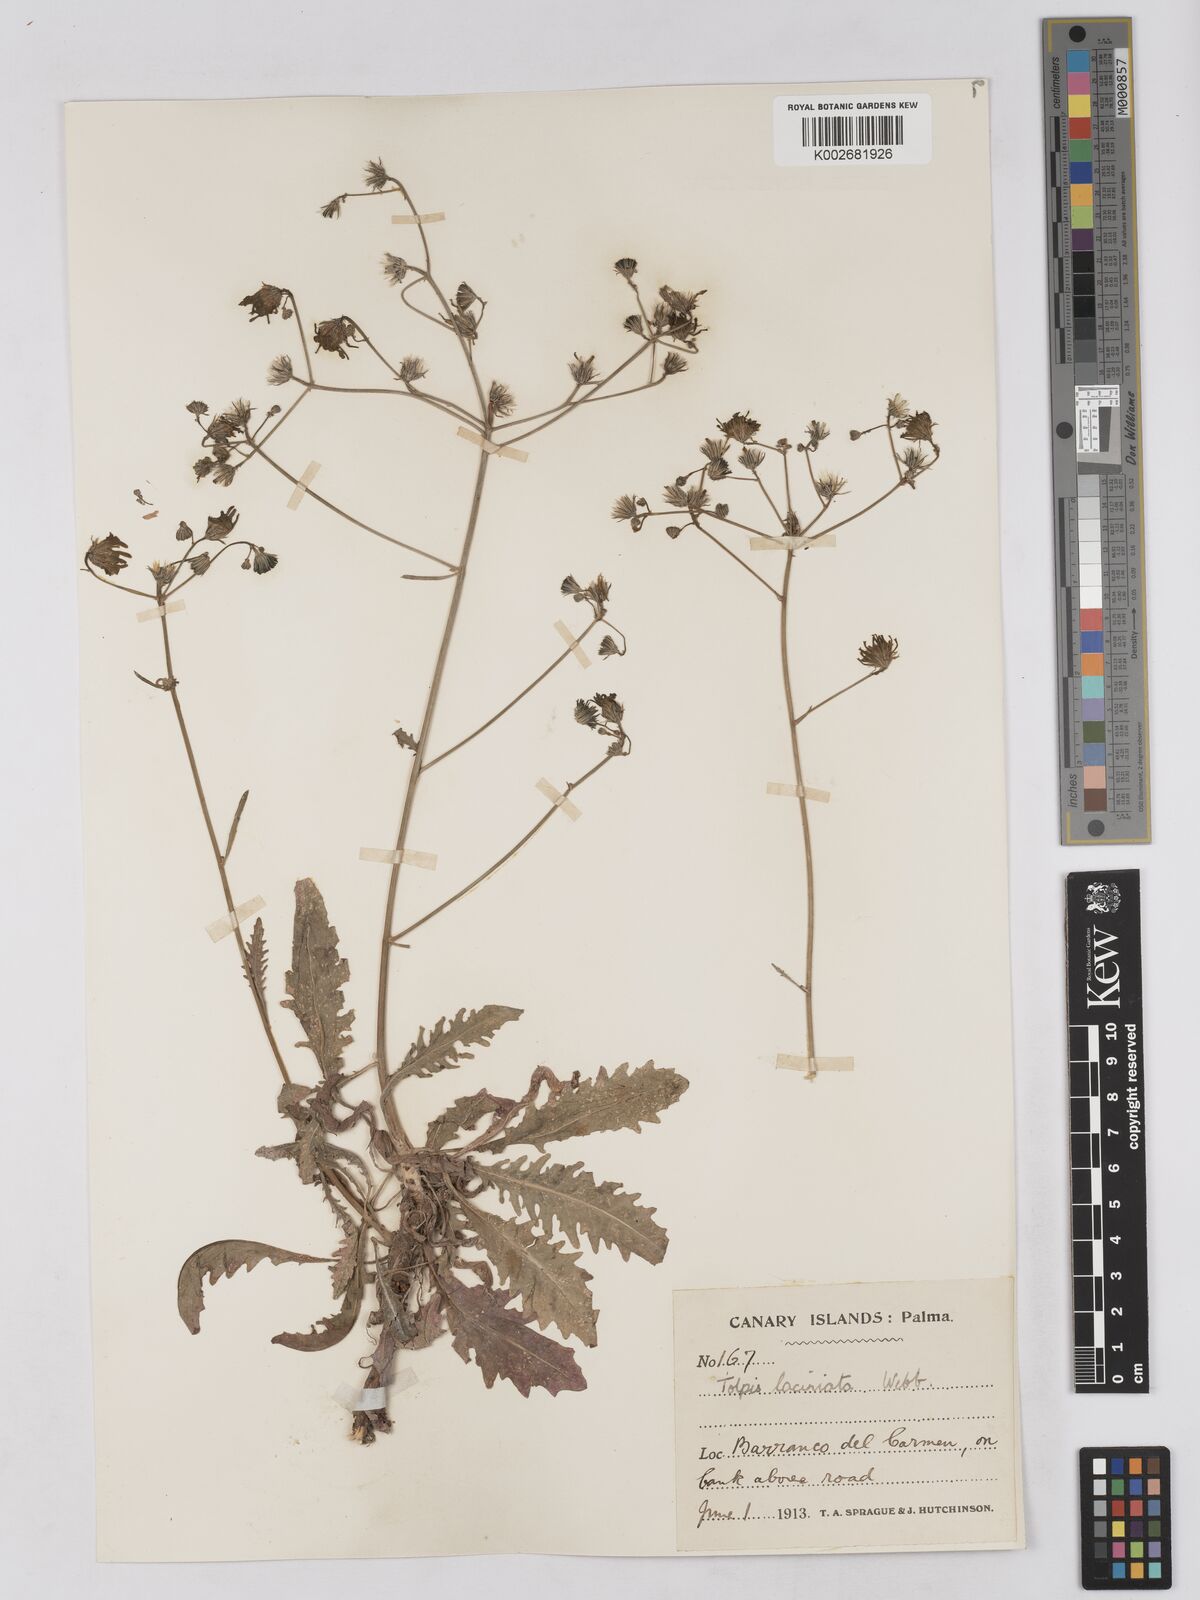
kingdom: Plantae
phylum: Tracheophyta
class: Magnoliopsida
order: Asterales
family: Asteraceae
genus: Tolpis
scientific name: Tolpis laciniata
